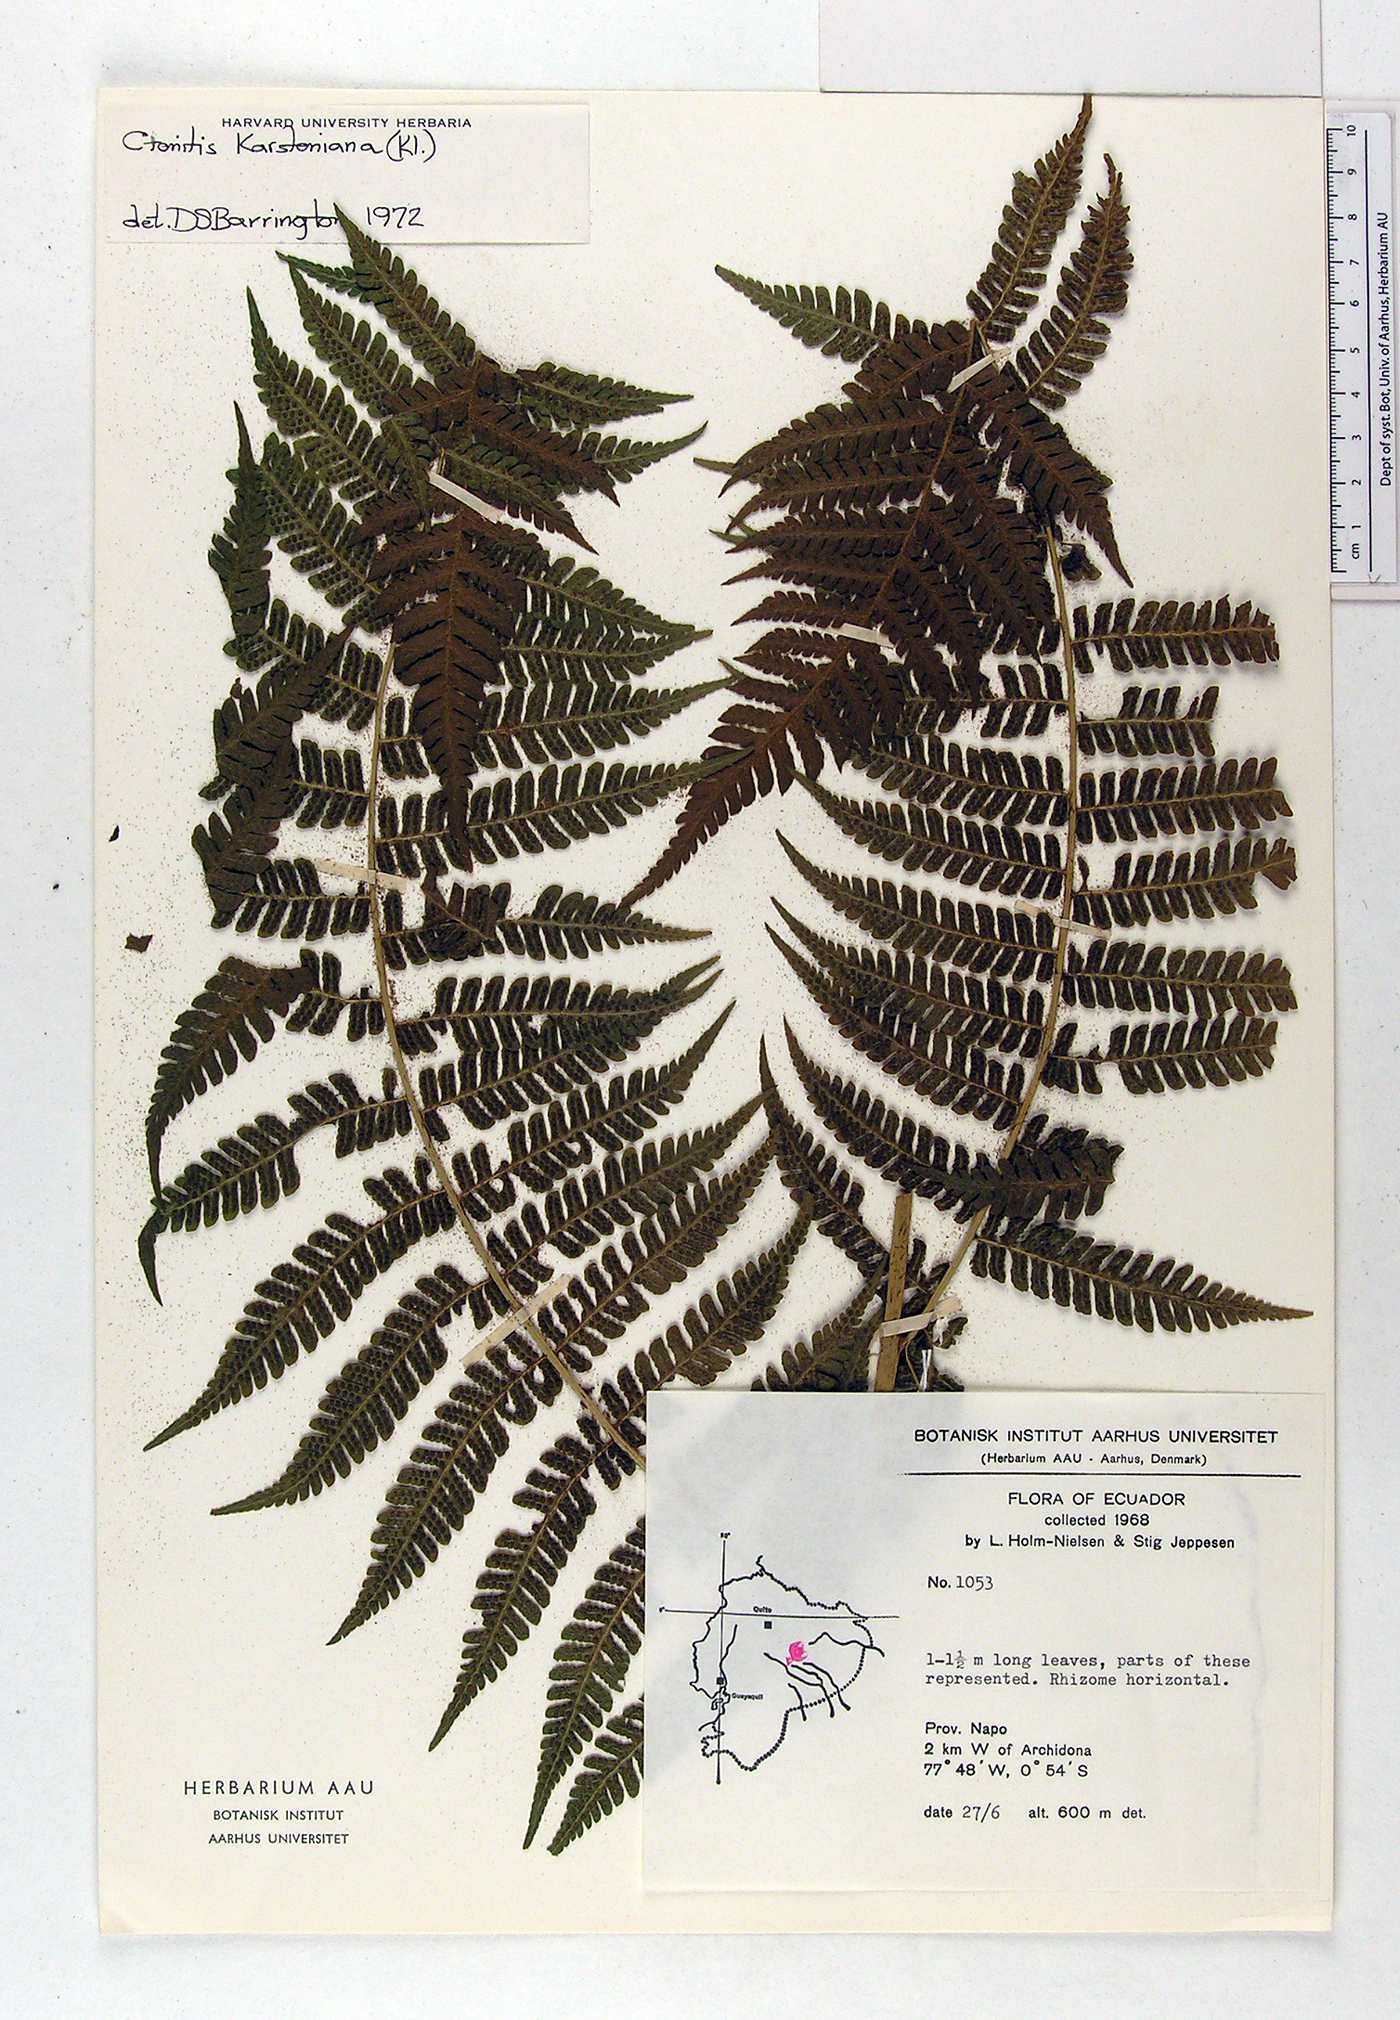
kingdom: Plantae
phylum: Tracheophyta
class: Polypodiopsida
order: Polypodiales
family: Dryopteridaceae
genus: Megalastrum
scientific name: Megalastrum pulverulentum
